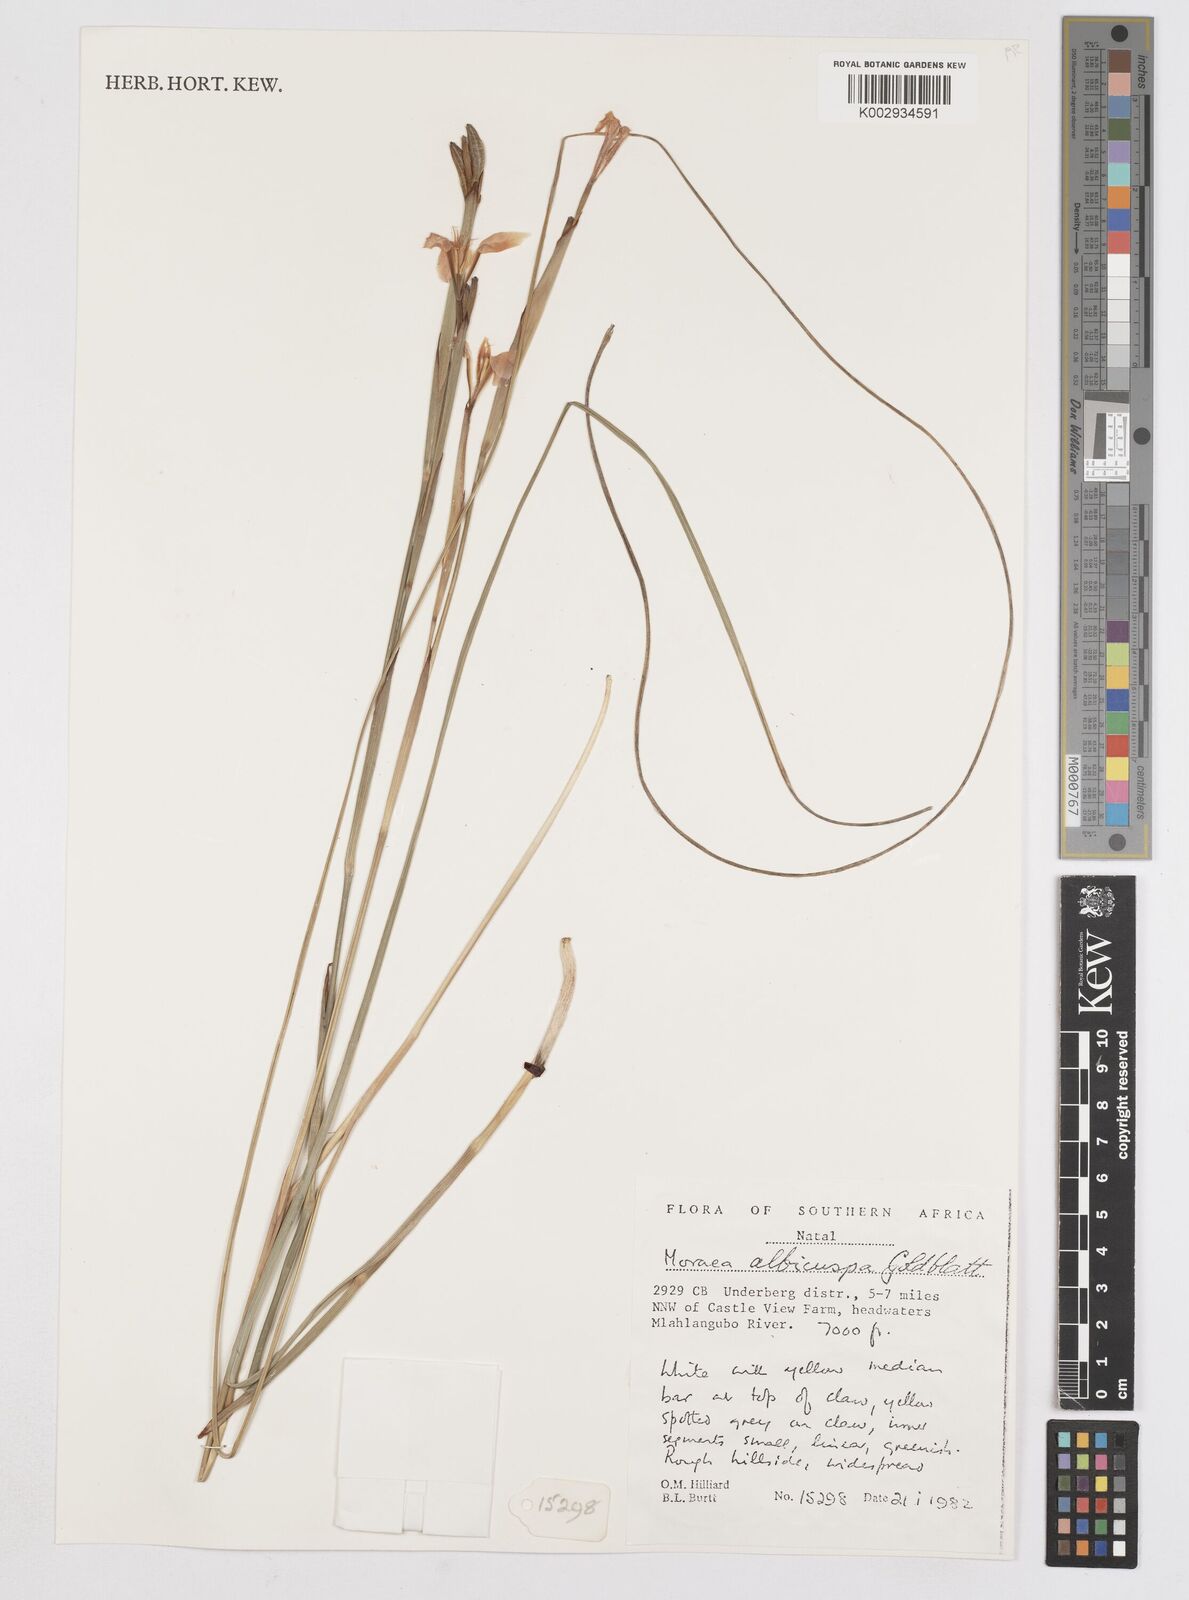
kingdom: Plantae
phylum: Tracheophyta
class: Liliopsida
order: Asparagales
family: Iridaceae
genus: Moraea
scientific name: Moraea albicuspa
